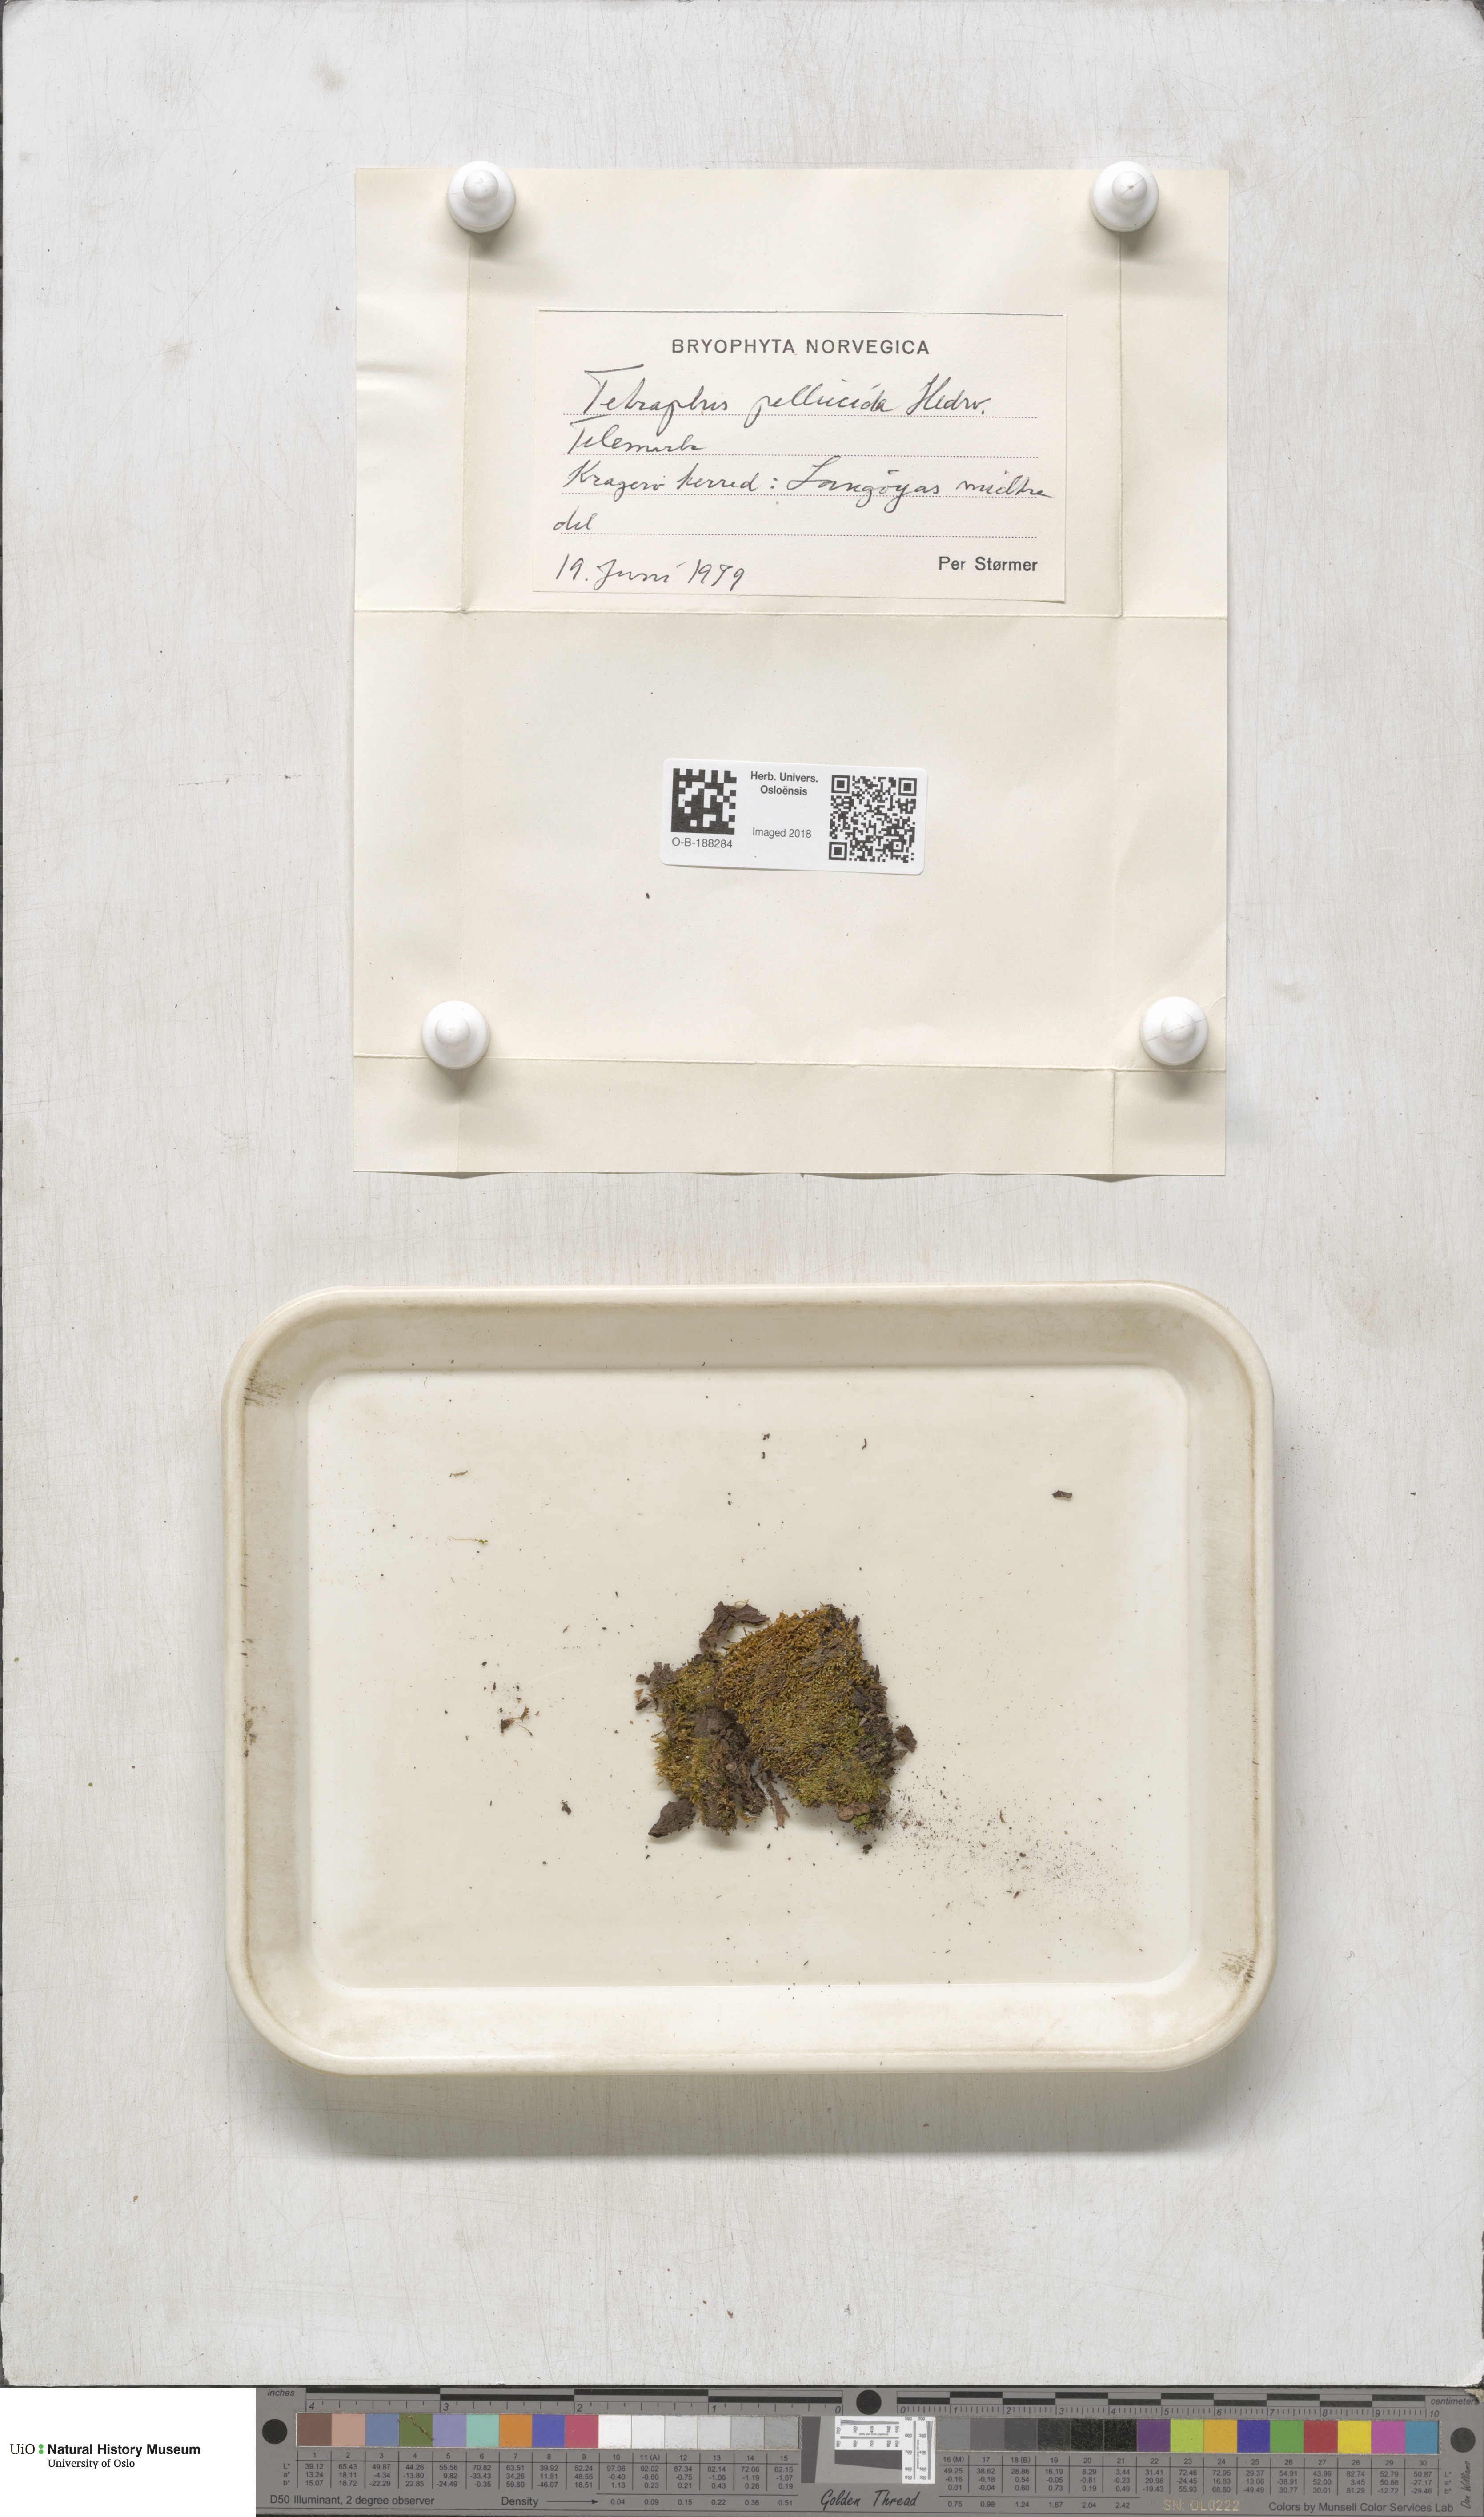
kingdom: Plantae
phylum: Bryophyta
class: Polytrichopsida
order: Tetraphidales
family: Tetraphidaceae
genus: Tetraphis
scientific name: Tetraphis pellucida
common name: Common four-toothed moss
